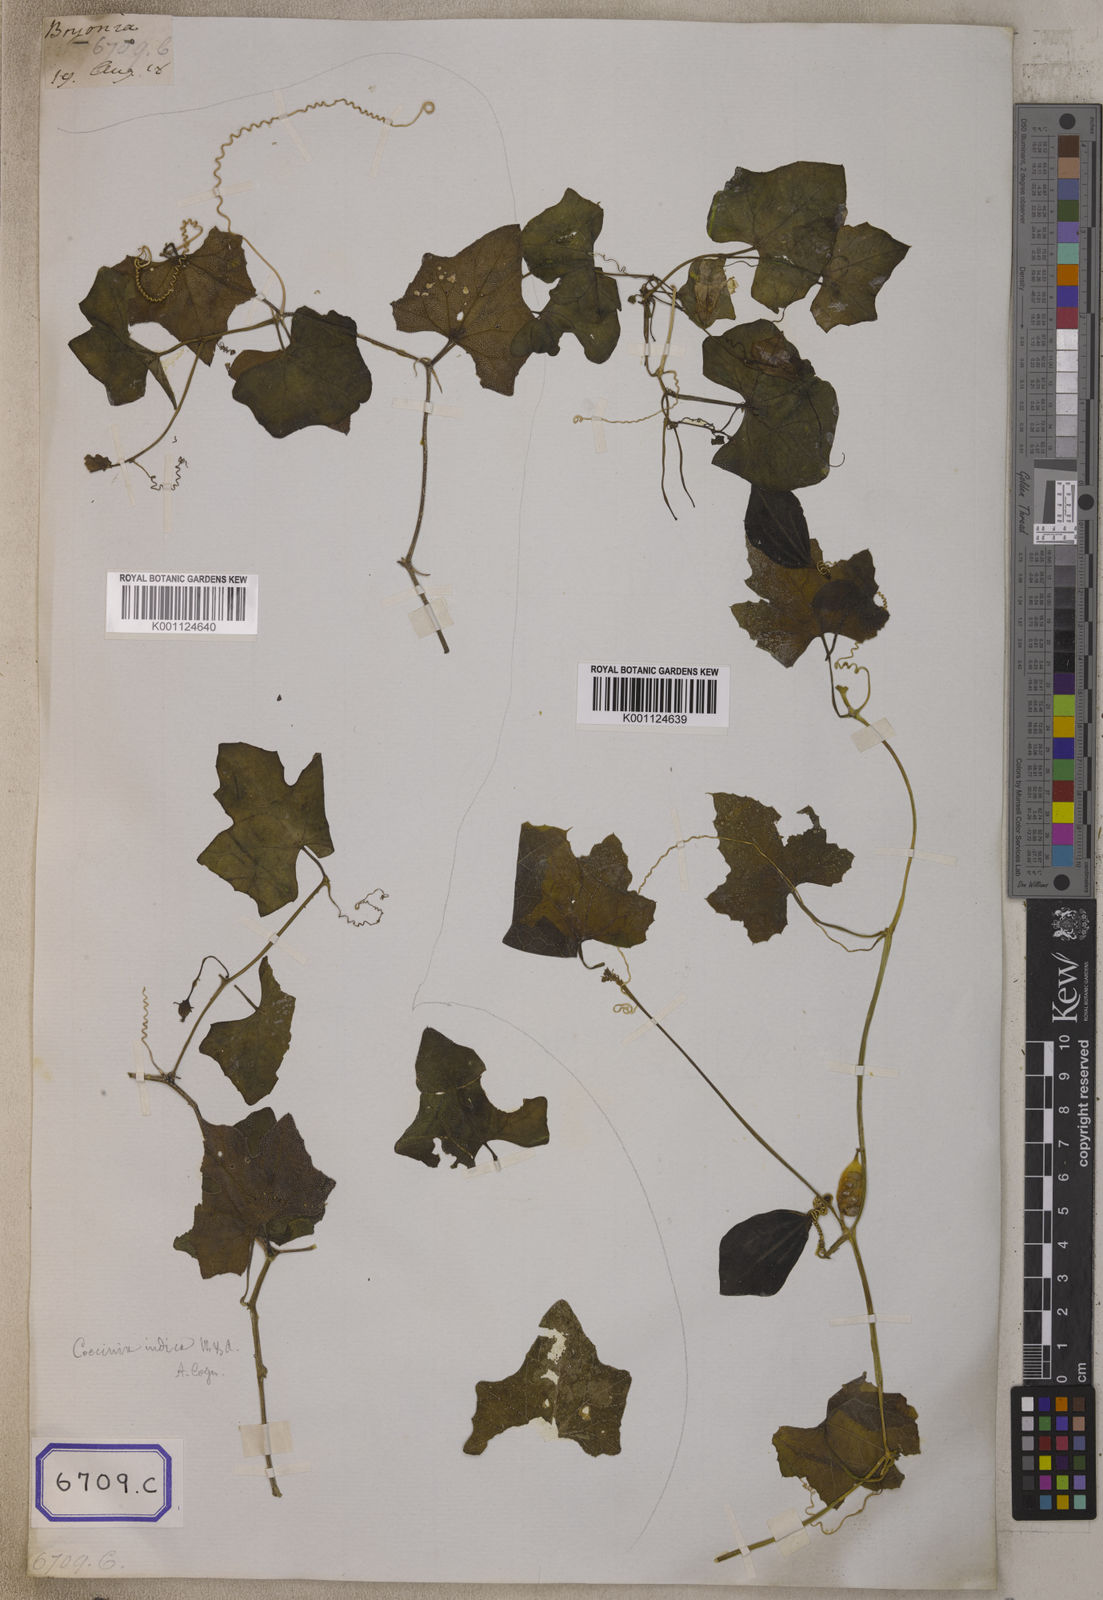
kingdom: Plantae
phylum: Tracheophyta
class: Magnoliopsida
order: Cucurbitales
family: Cucurbitaceae
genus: Corallocarpus
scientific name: Corallocarpus epigaeus
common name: Indian bryonia
